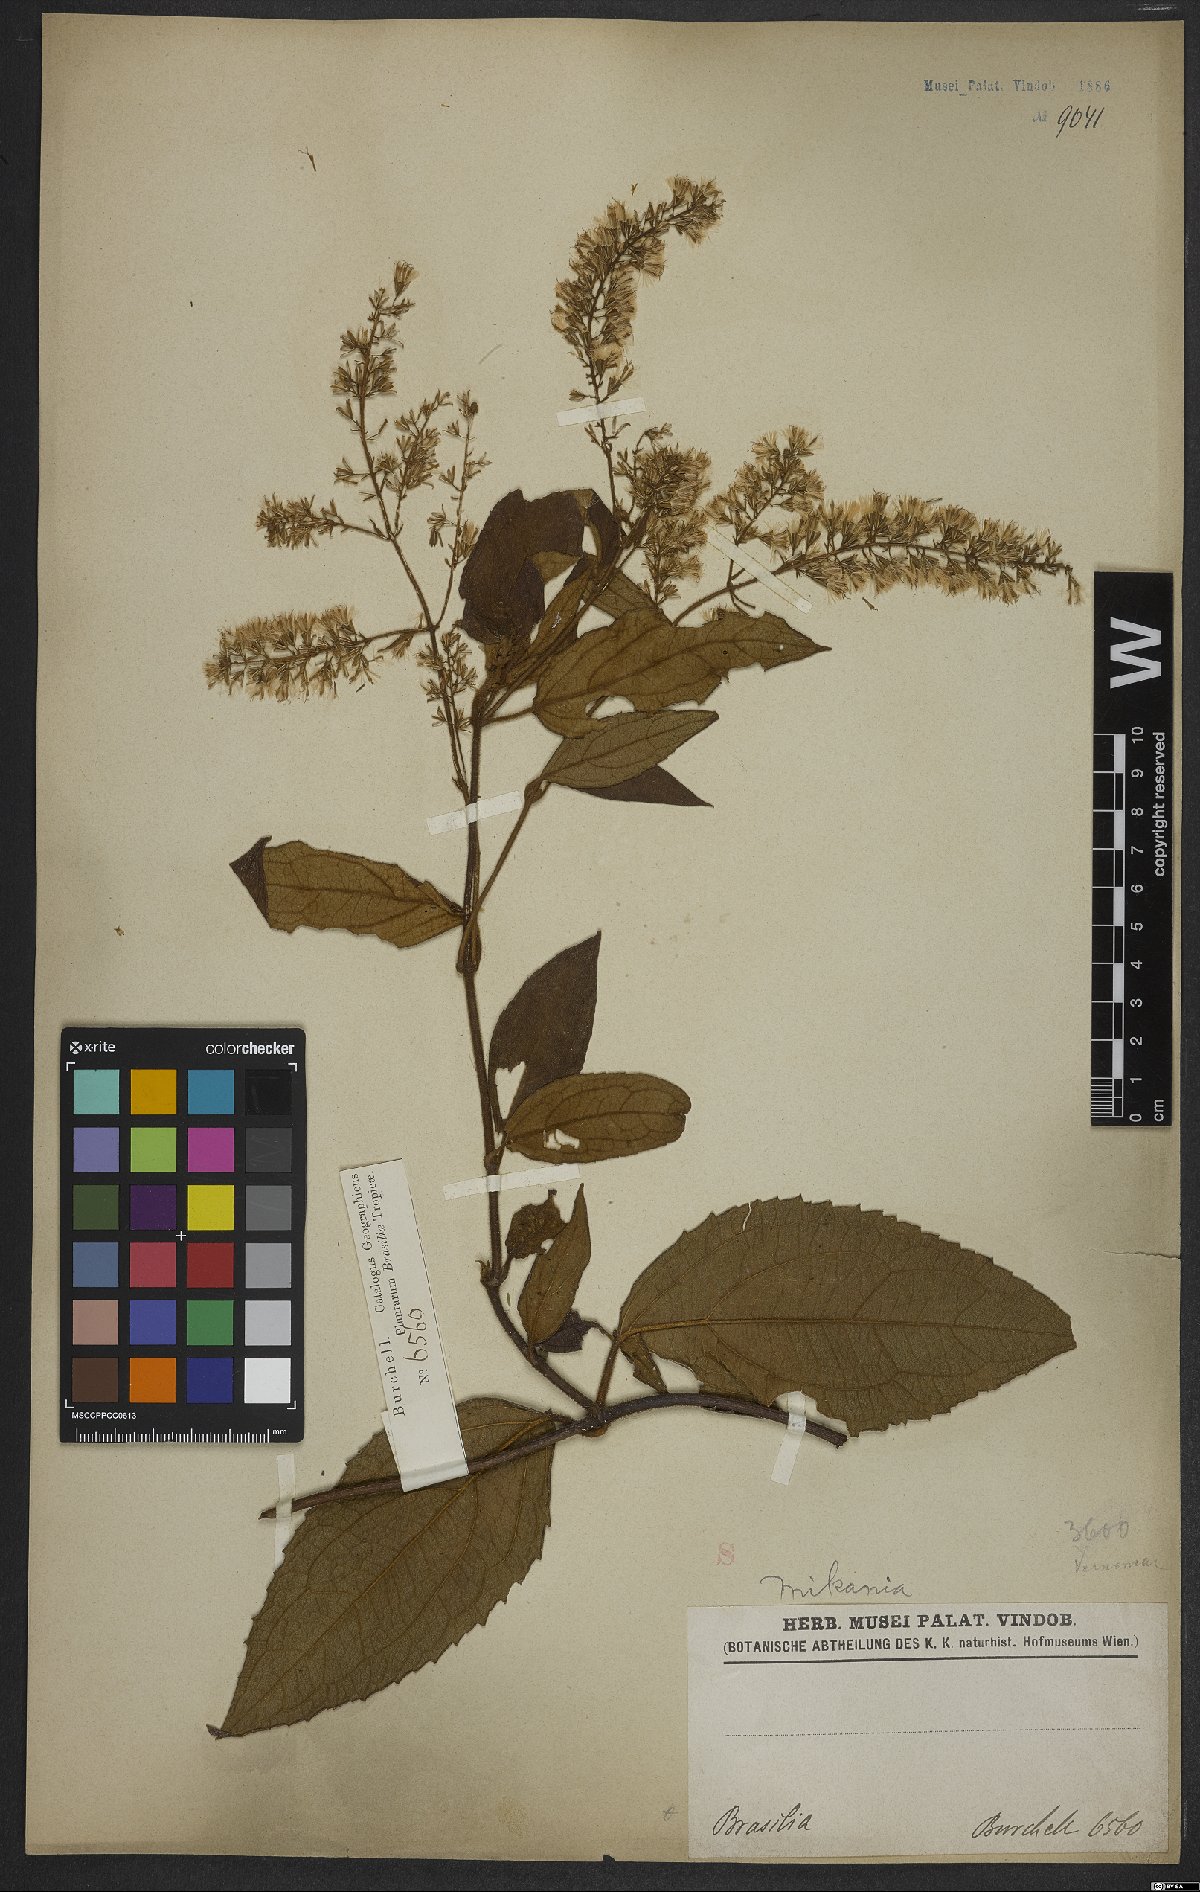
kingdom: Plantae
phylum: Tracheophyta
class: Magnoliopsida
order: Asterales
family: Asteraceae
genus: Mikania
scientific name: Mikania
